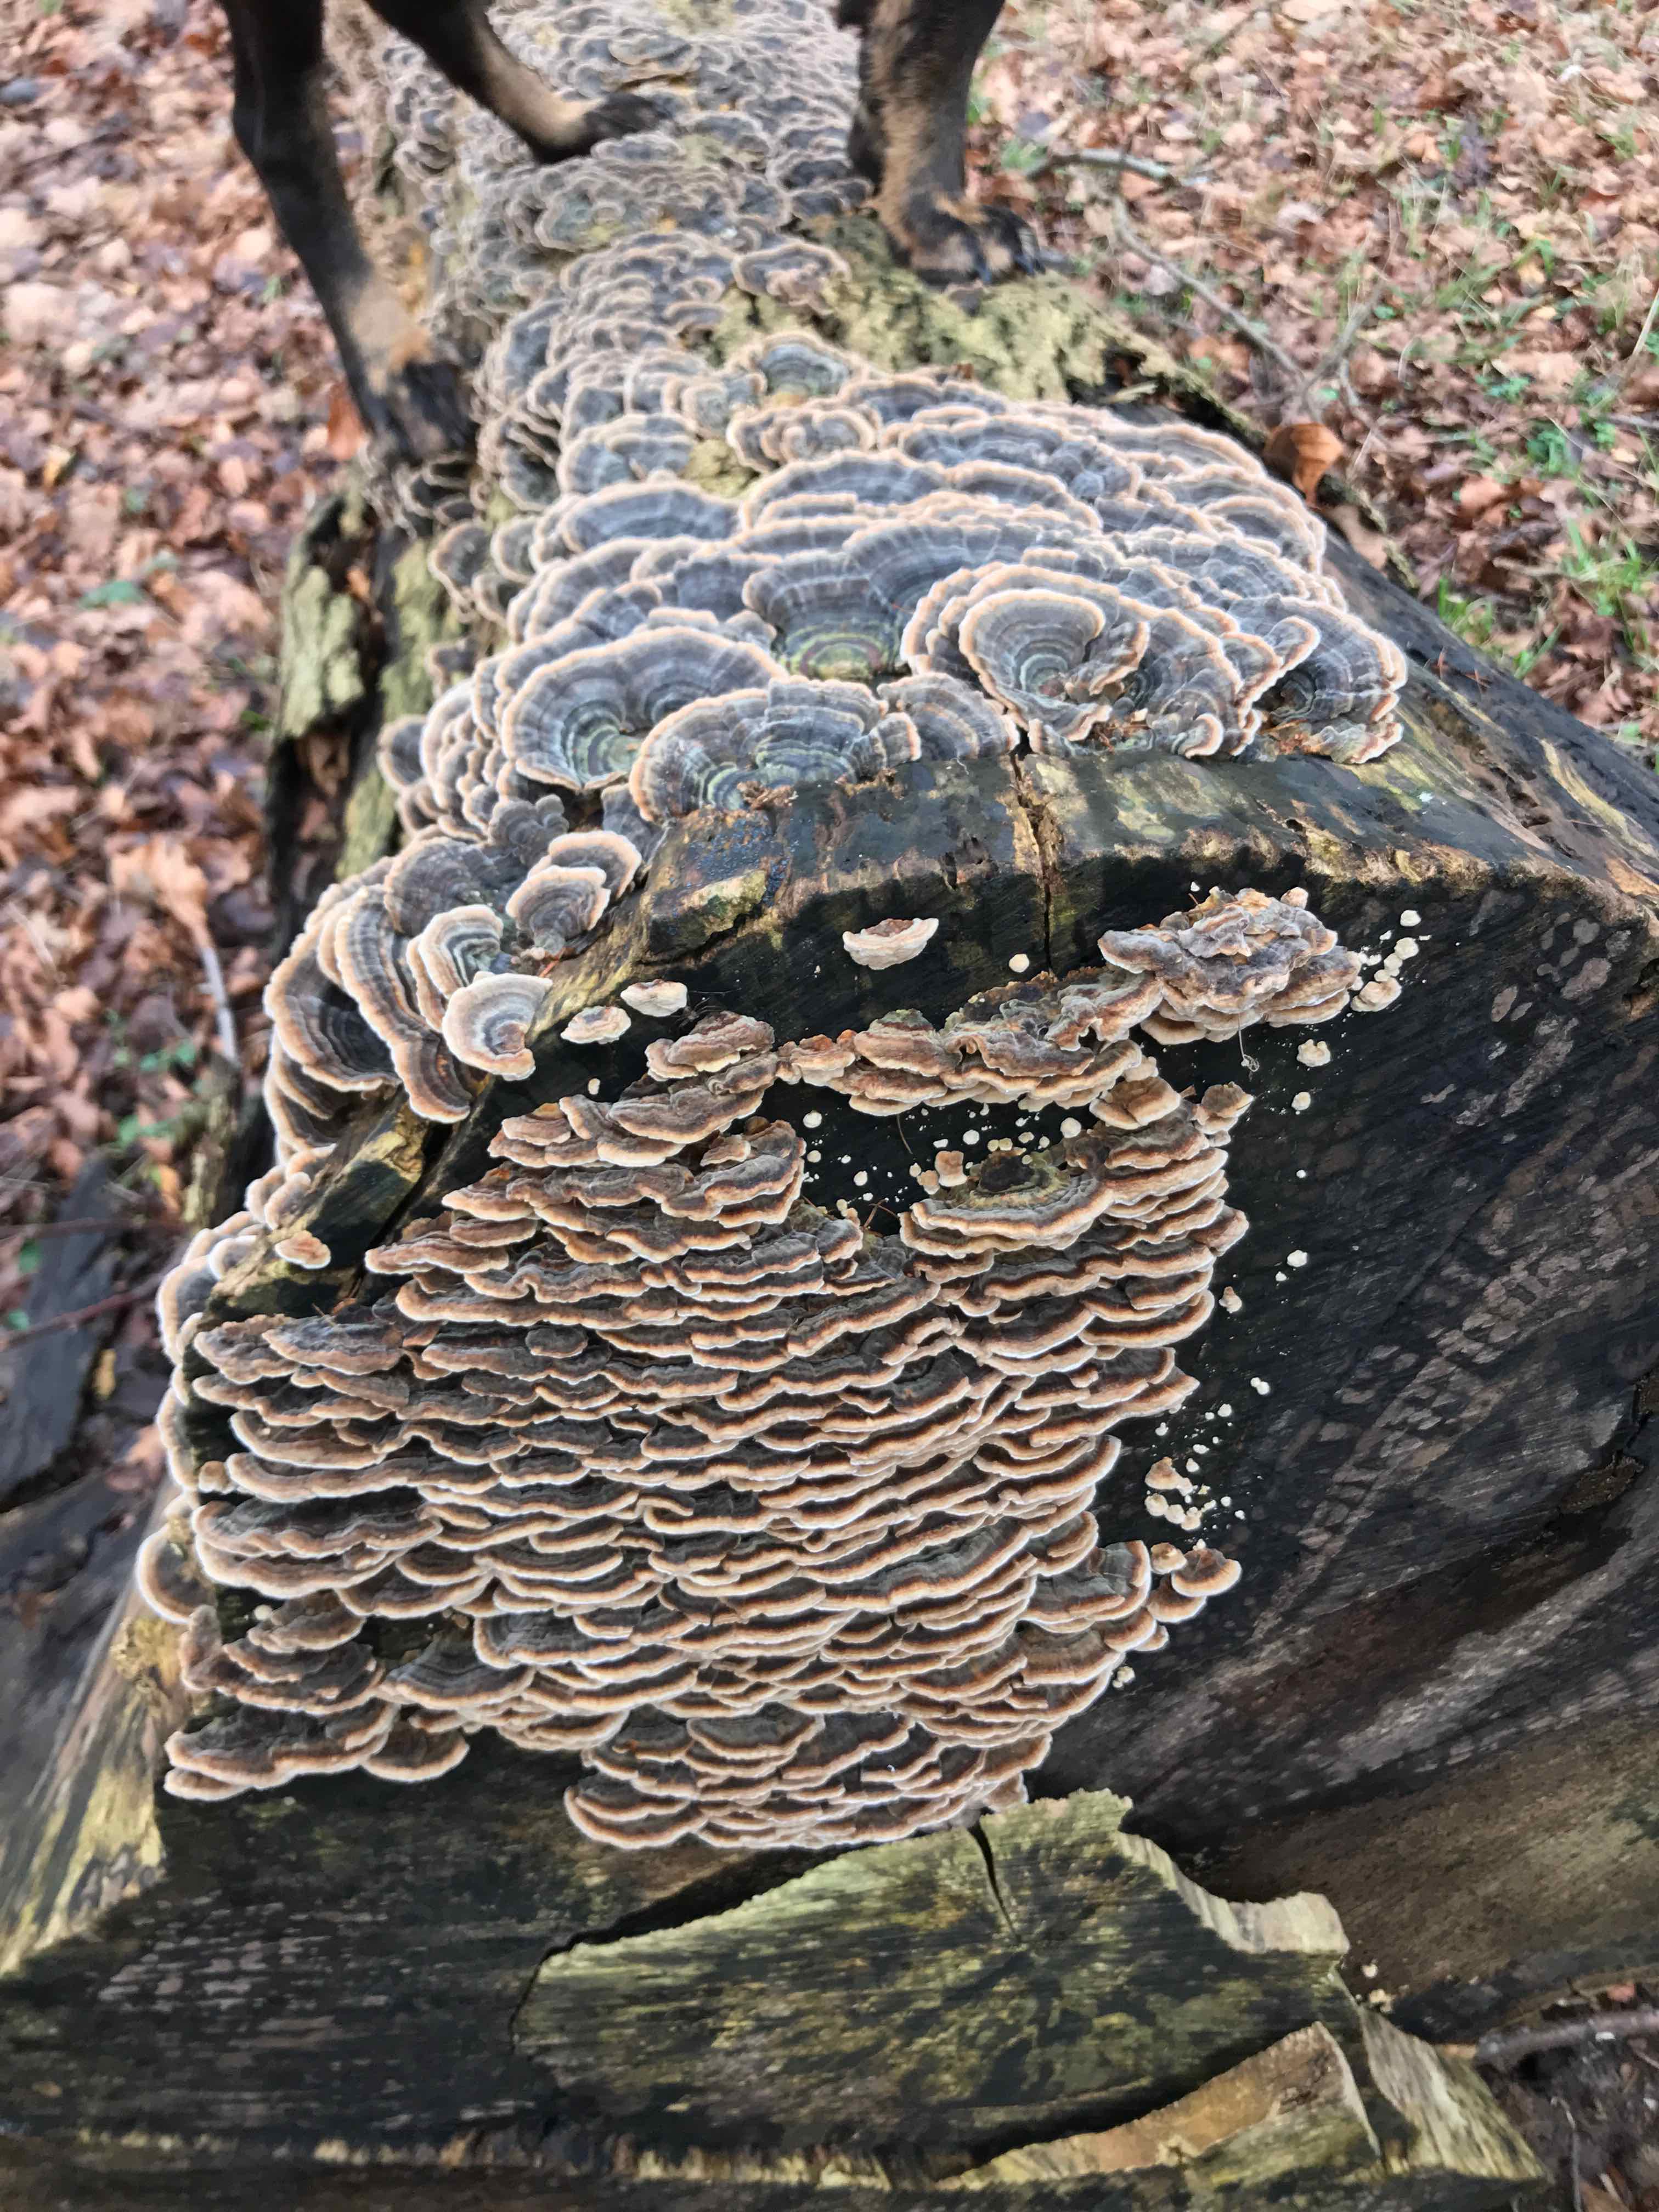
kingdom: Fungi
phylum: Basidiomycota
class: Agaricomycetes
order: Polyporales
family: Polyporaceae
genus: Trametes
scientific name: Trametes versicolor
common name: broget læderporesvamp
